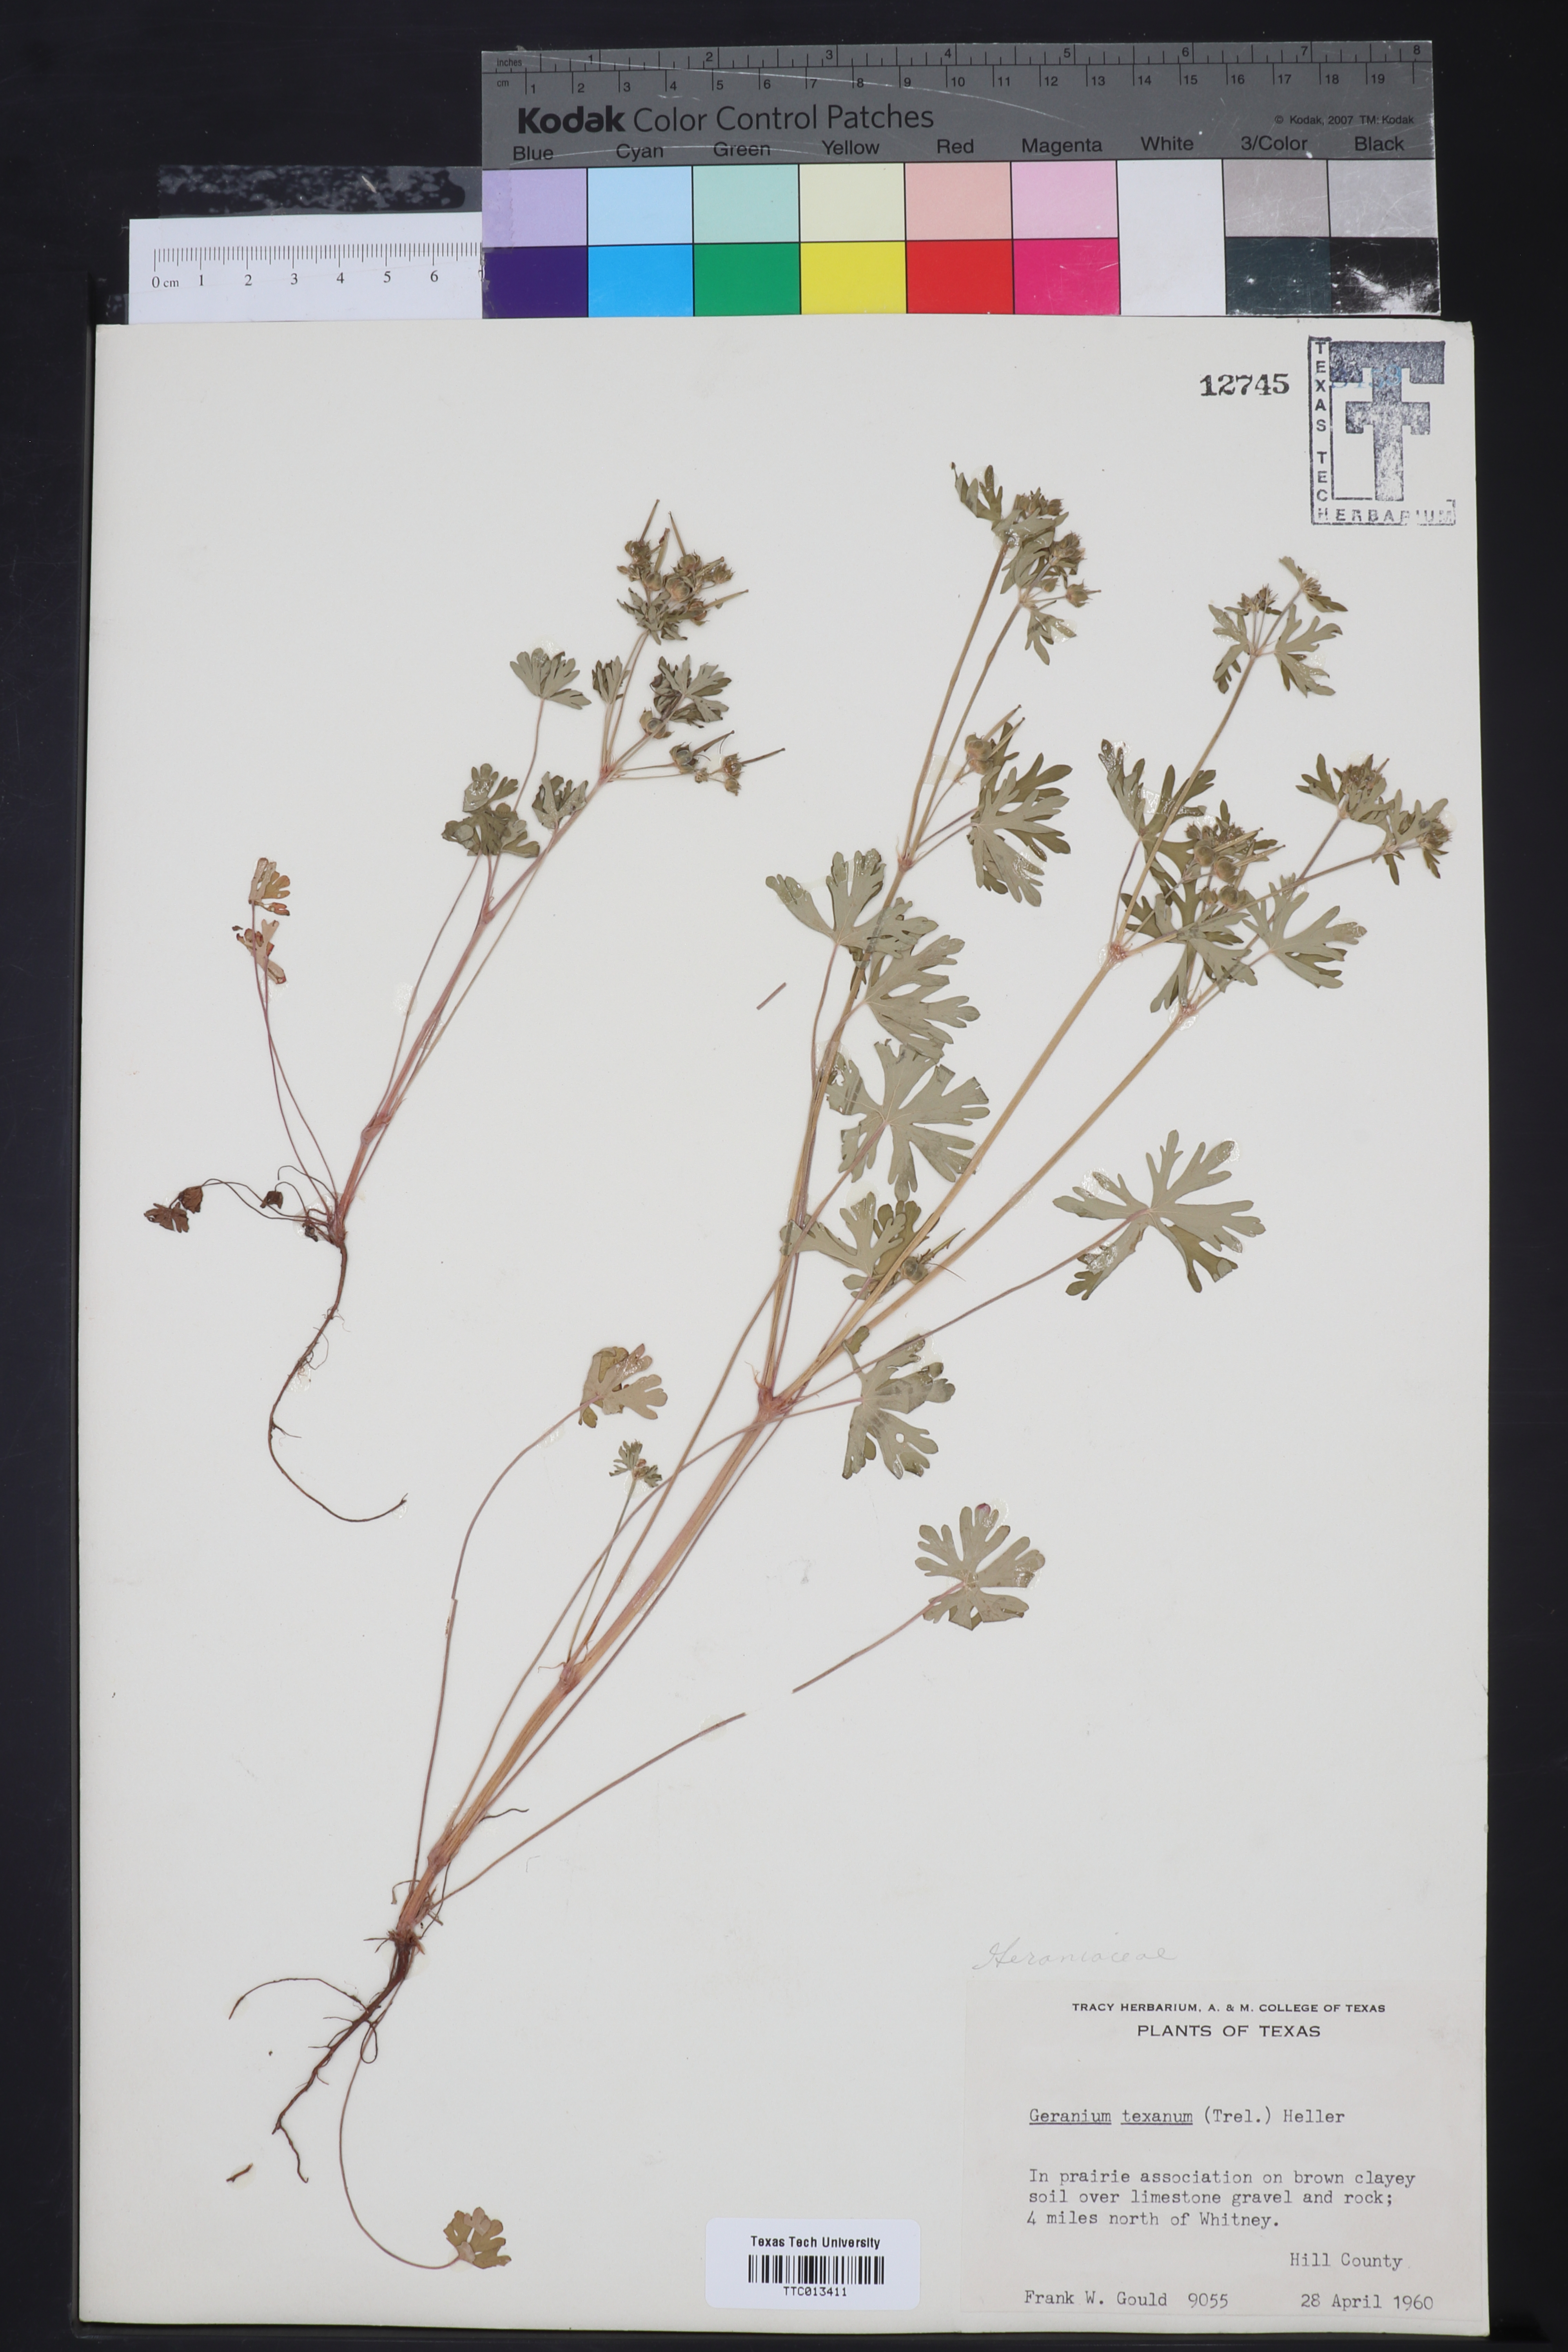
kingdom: Plantae
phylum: Tracheophyta
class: Magnoliopsida
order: Geraniales
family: Geraniaceae
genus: Geranium
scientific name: Geranium texanum
